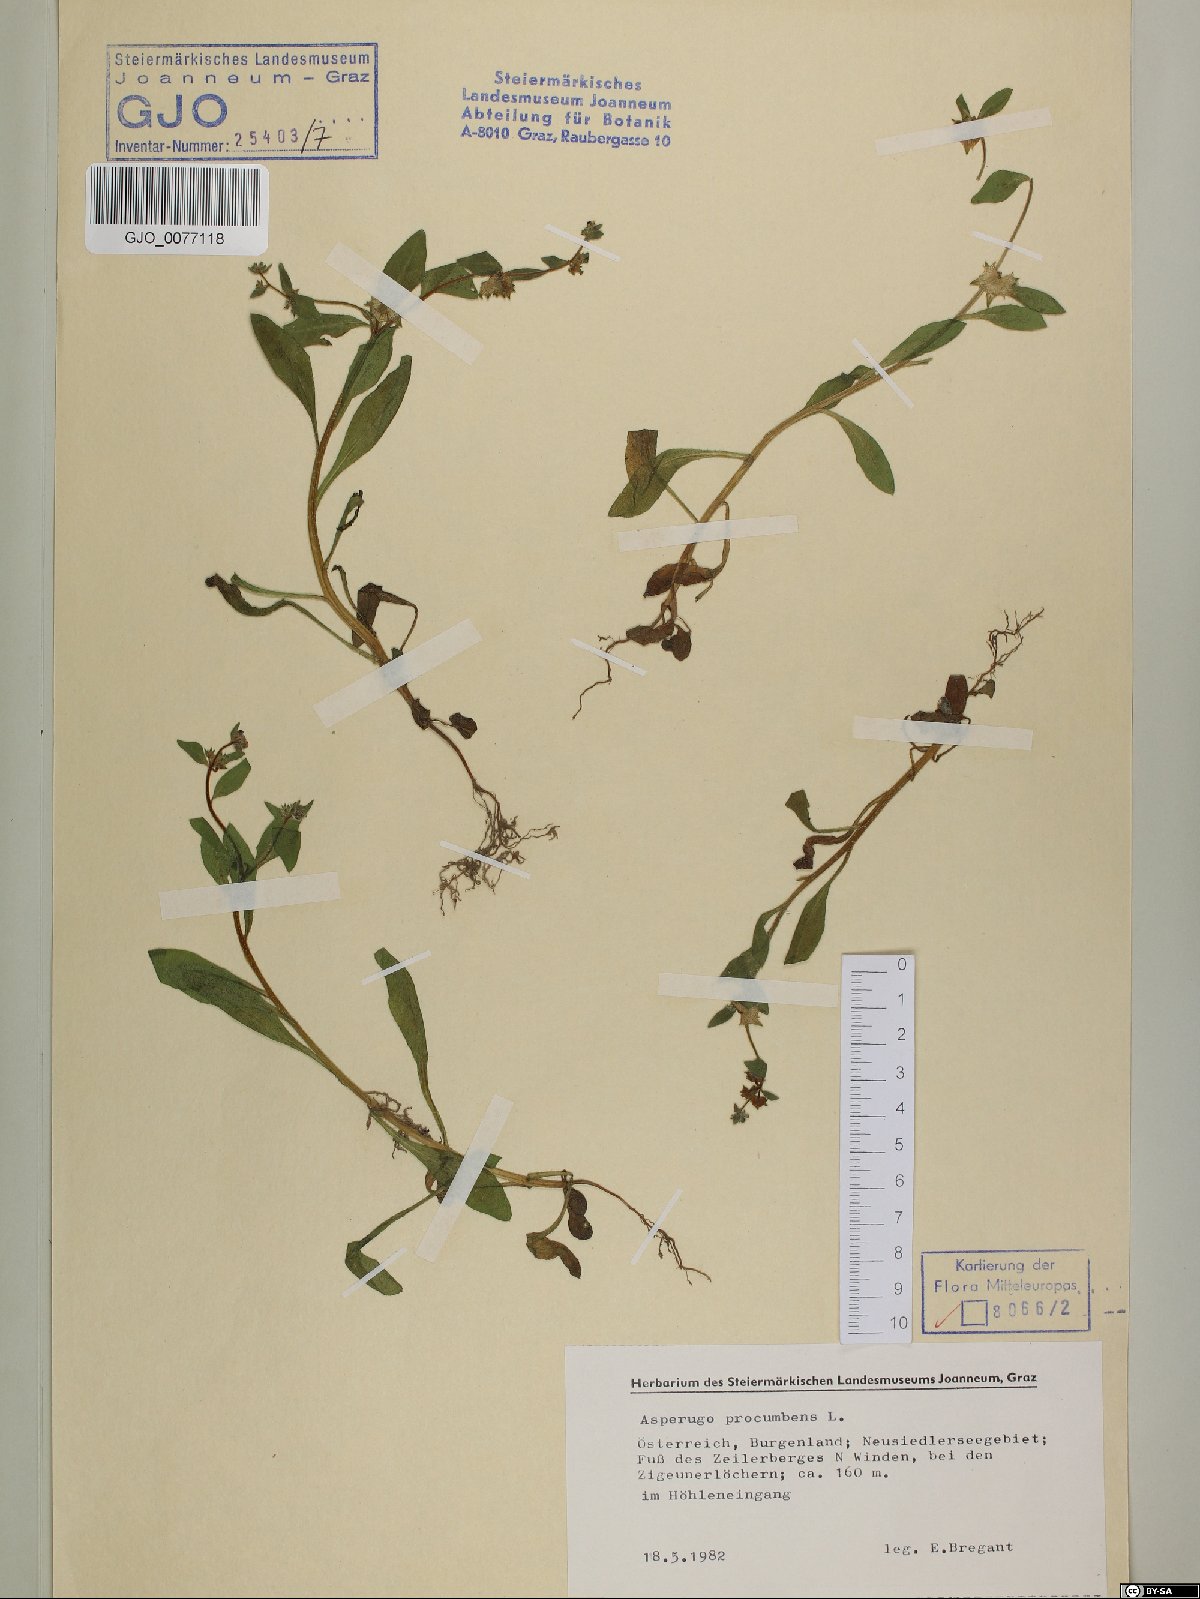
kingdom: Plantae
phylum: Tracheophyta
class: Magnoliopsida
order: Boraginales
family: Boraginaceae
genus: Asperugo
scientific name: Asperugo procumbens
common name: Madwort
